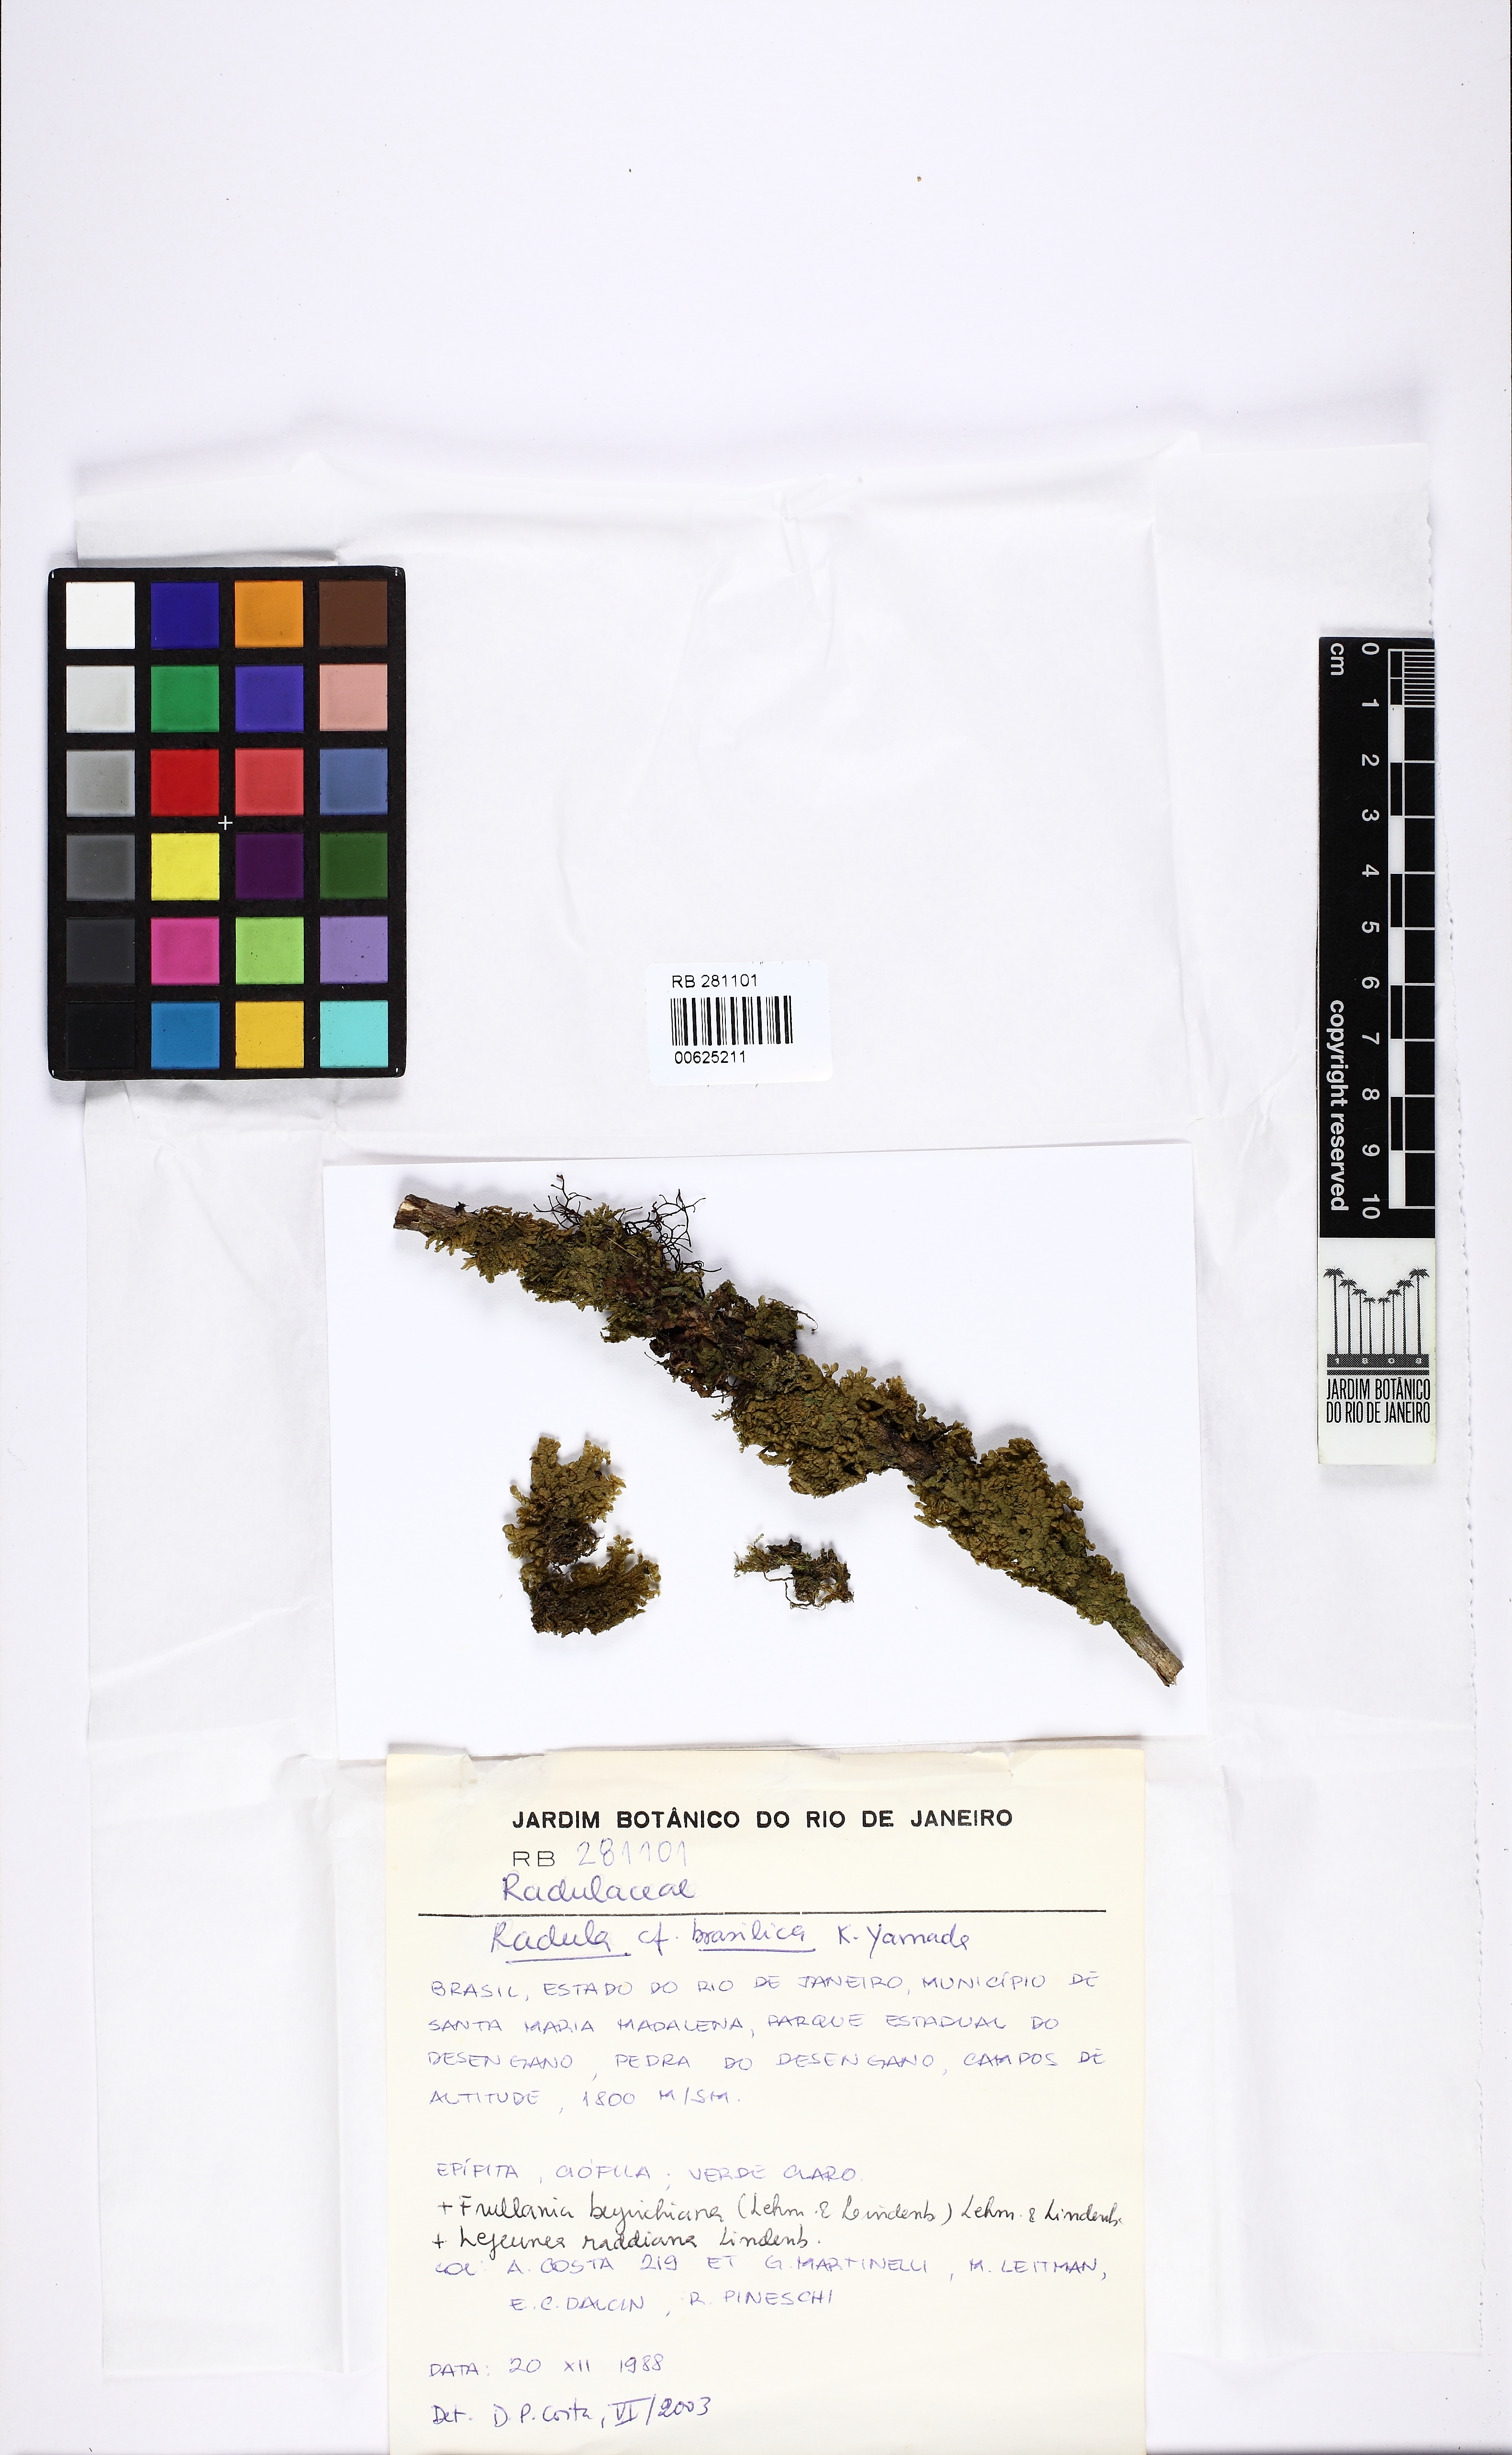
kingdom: Plantae
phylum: Marchantiophyta
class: Jungermanniopsida
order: Porellales
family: Radulaceae
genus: Radula
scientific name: Radula subinflata
